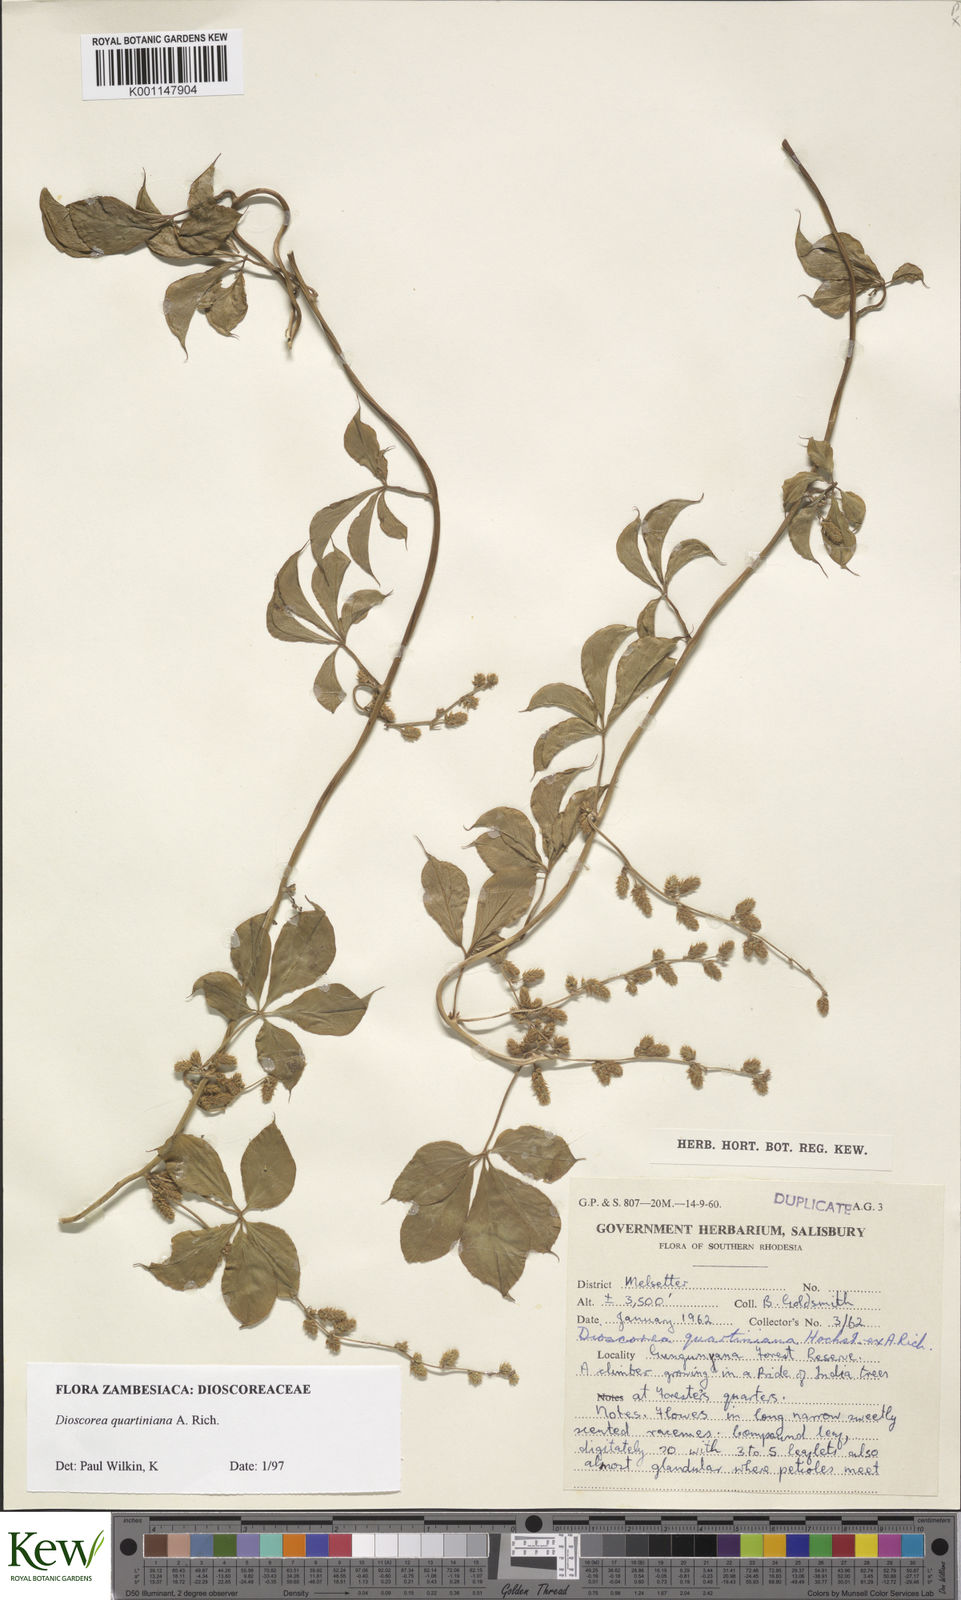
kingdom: Plantae
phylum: Tracheophyta
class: Liliopsida
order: Dioscoreales
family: Dioscoreaceae
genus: Dioscorea
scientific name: Dioscorea quartiniana
